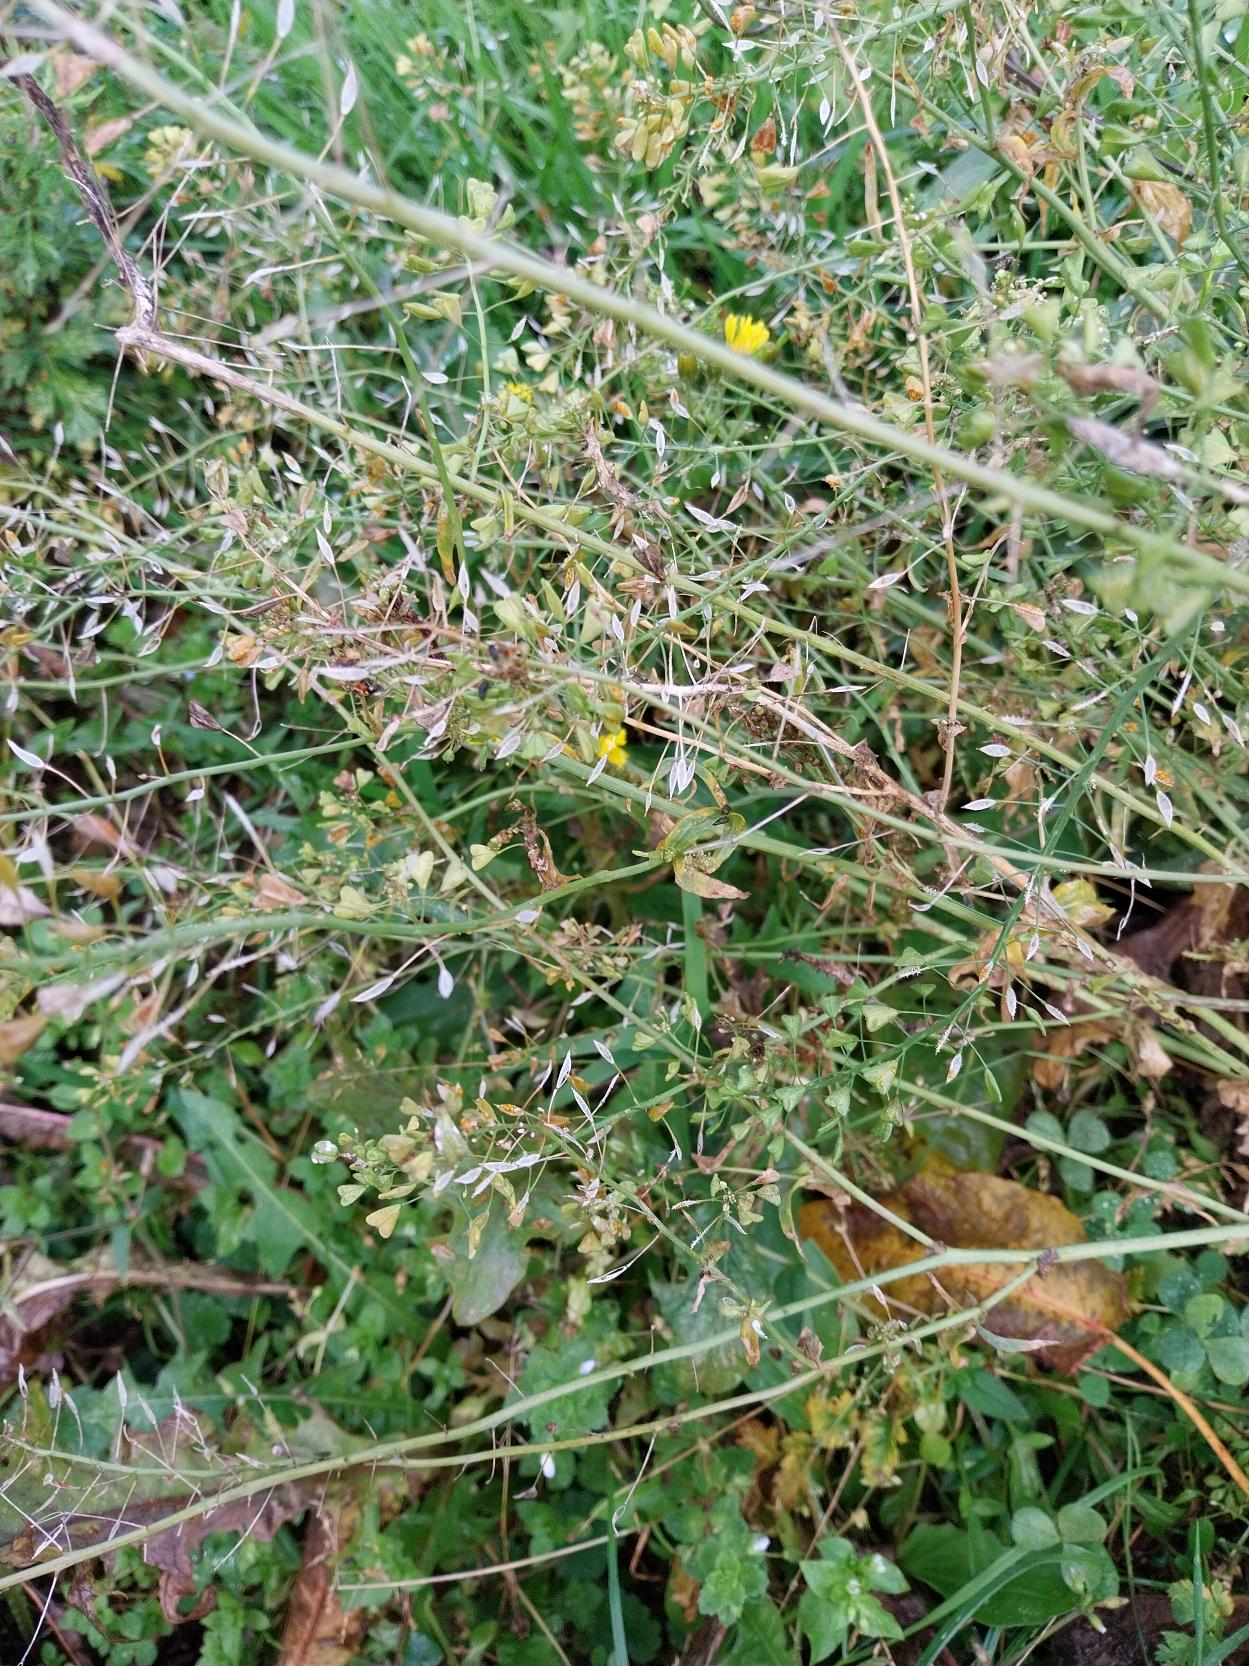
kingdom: Plantae
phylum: Tracheophyta
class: Magnoliopsida
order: Brassicales
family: Brassicaceae
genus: Capsella
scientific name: Capsella bursa-pastoris
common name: Hyrdetaske
